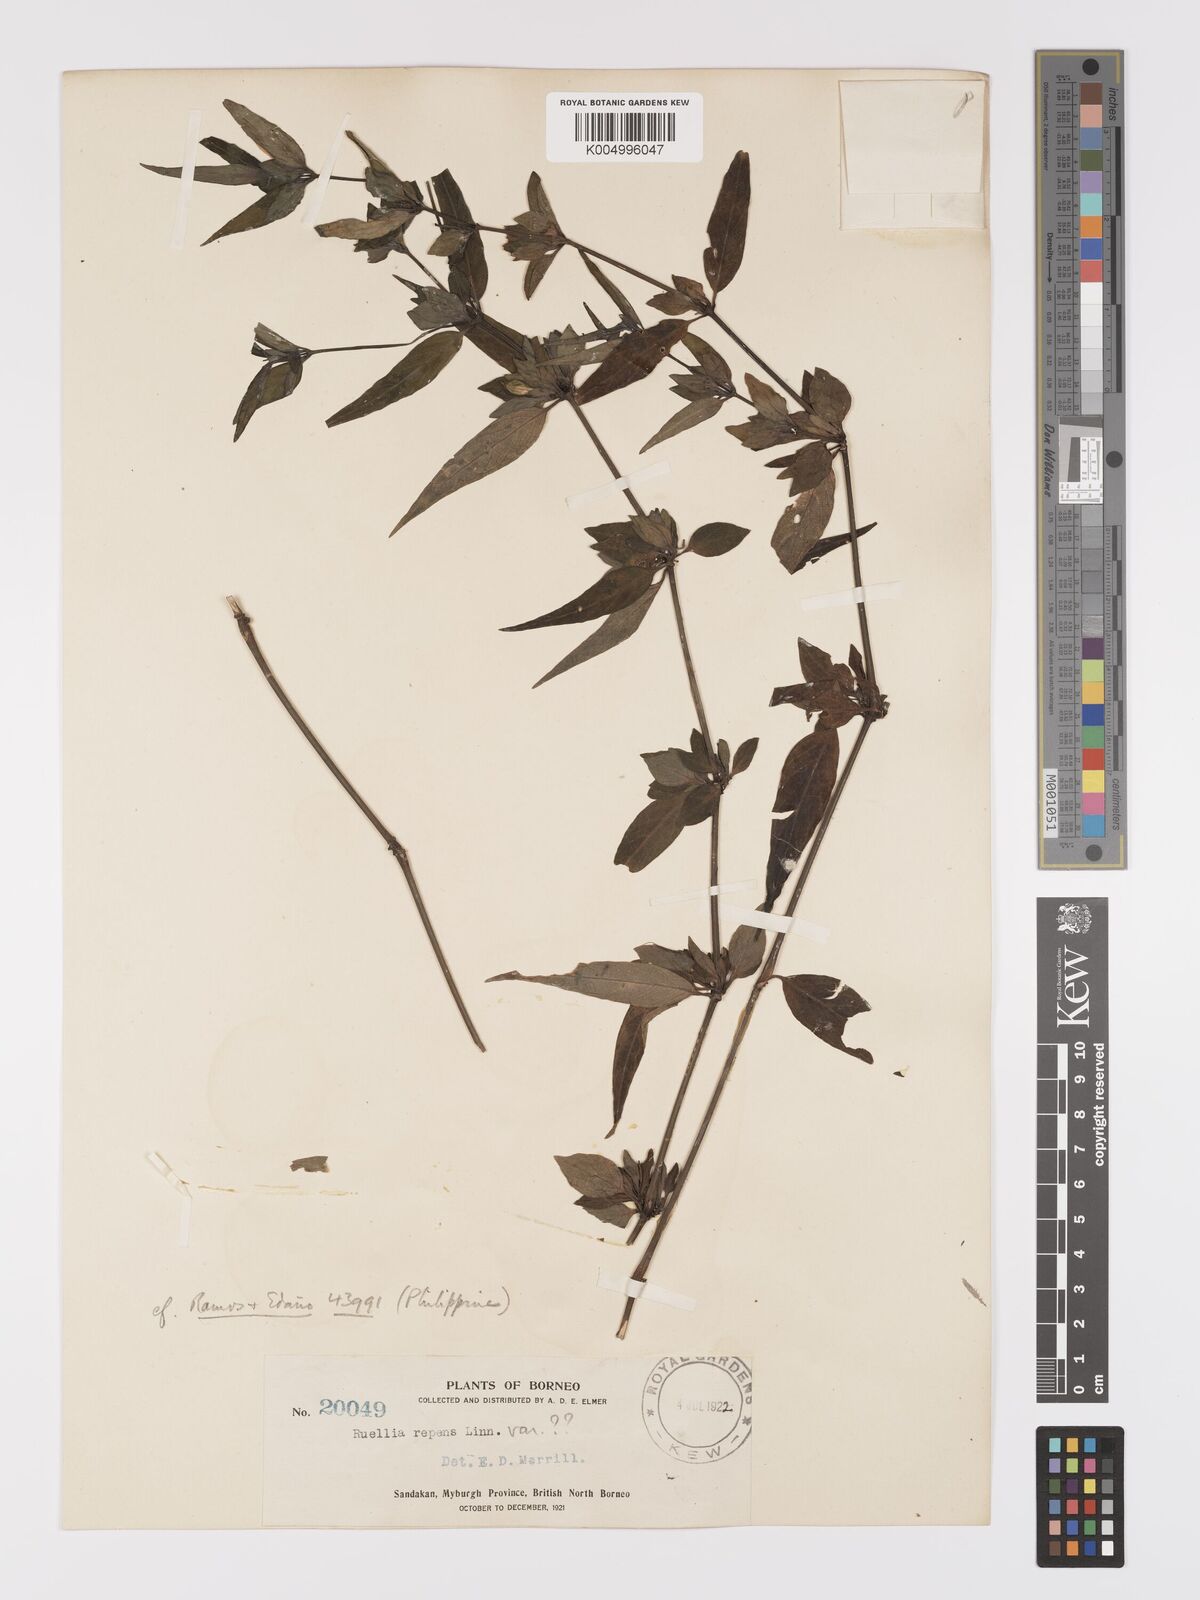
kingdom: Plantae
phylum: Tracheophyta
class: Magnoliopsida
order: Lamiales
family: Acanthaceae
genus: Ruellia
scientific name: Ruellia
